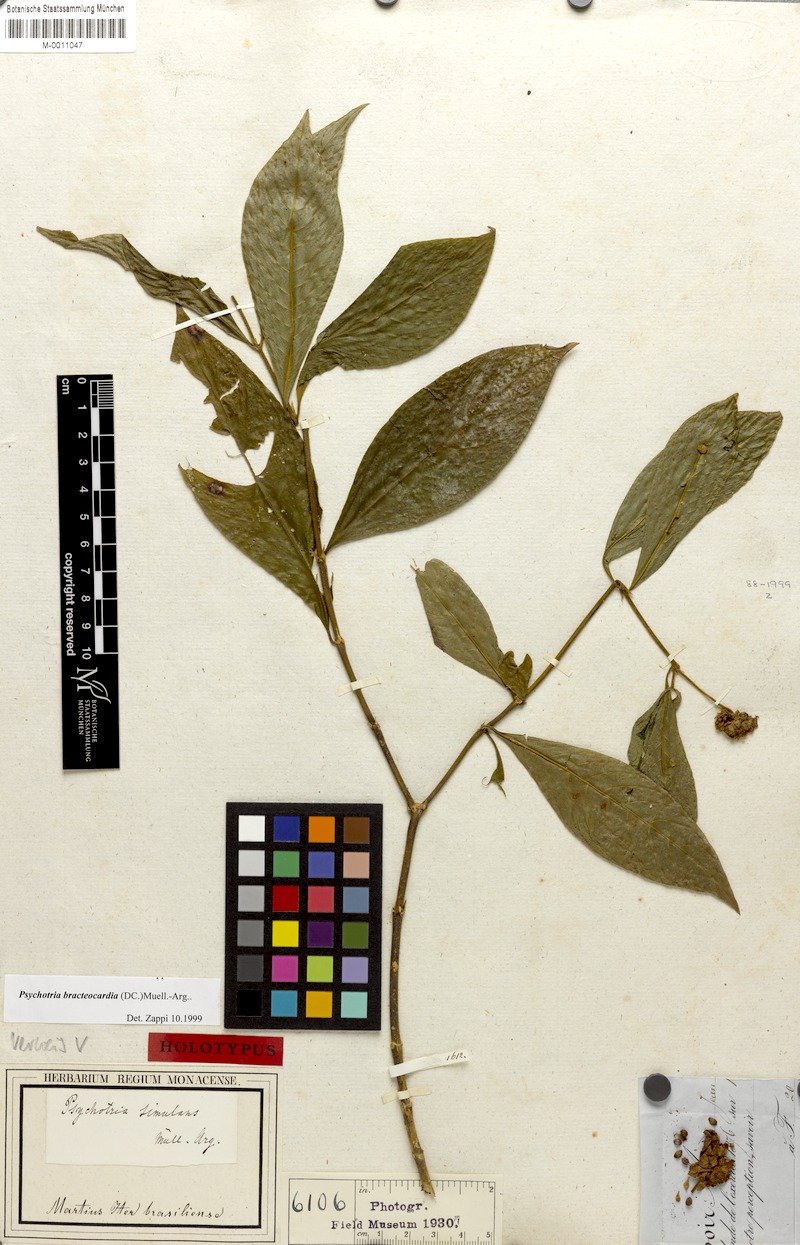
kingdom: Plantae
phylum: Tracheophyta
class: Magnoliopsida
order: Gentianales
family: Rubiaceae
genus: Palicourea
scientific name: Palicourea bracteocardia
